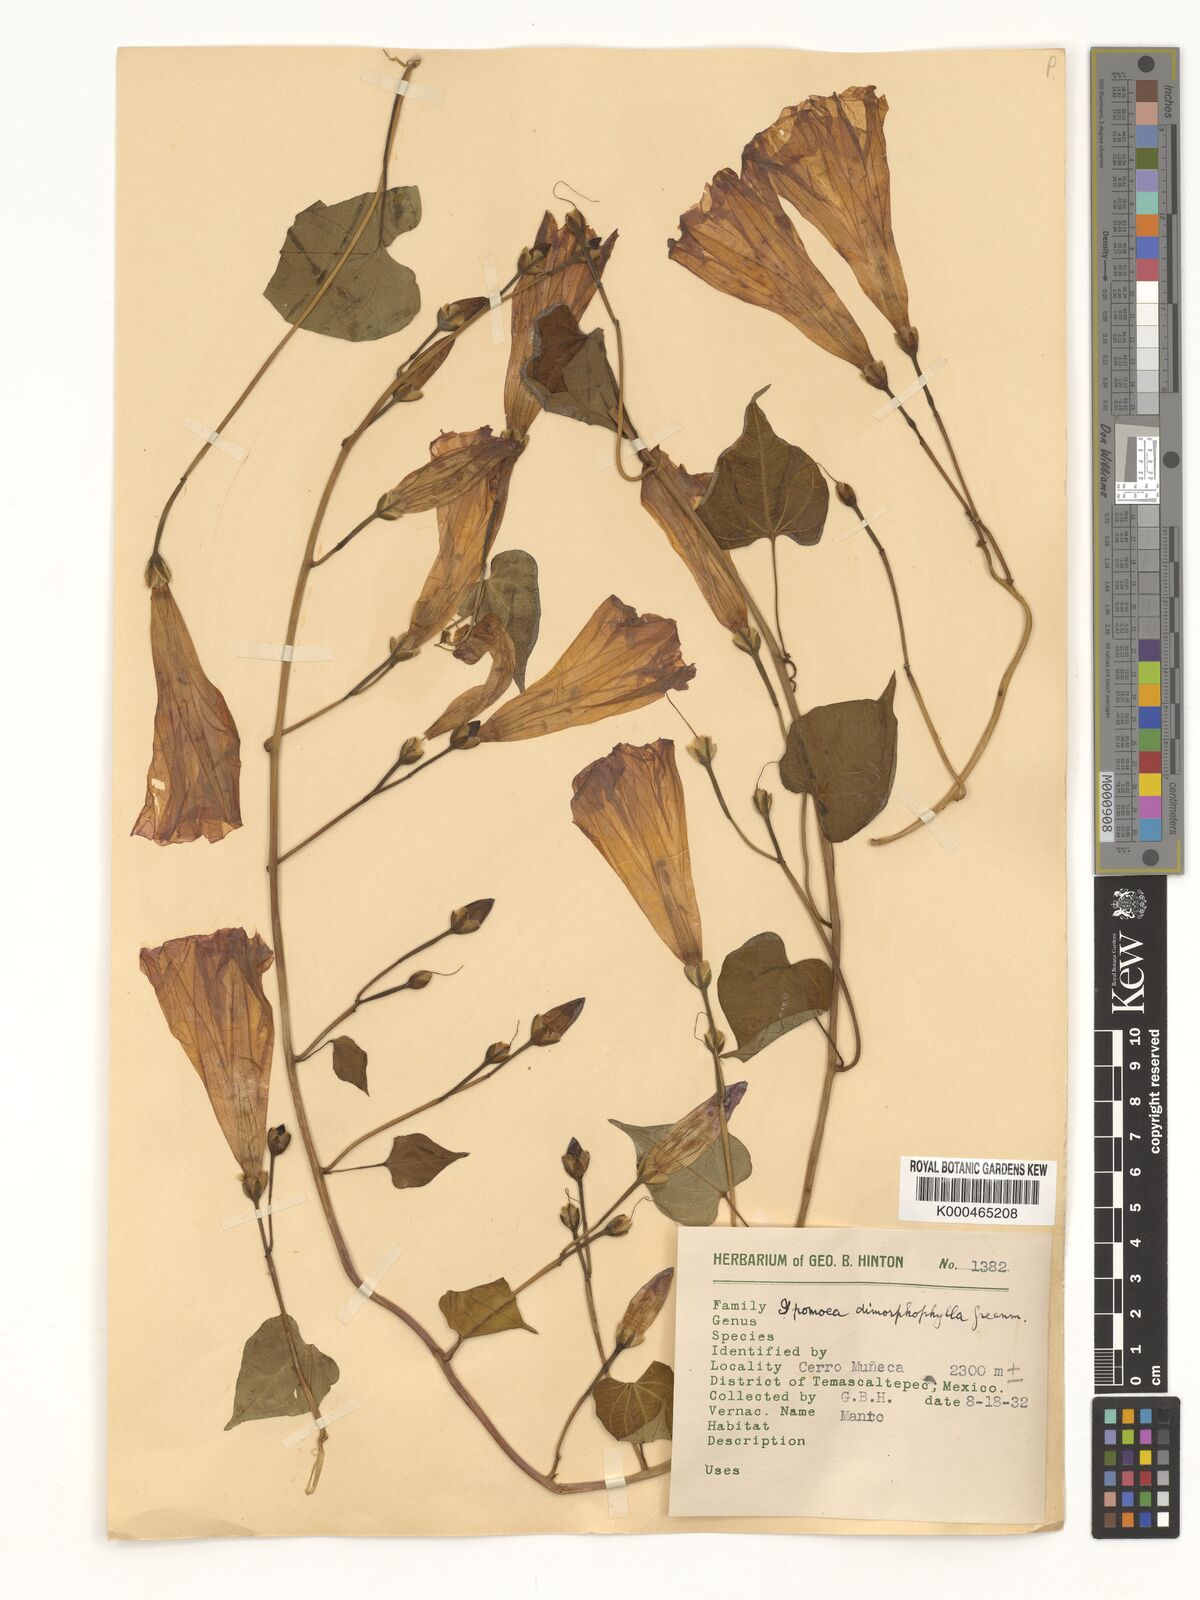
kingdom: Plantae
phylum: Tracheophyta
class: Magnoliopsida
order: Solanales
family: Convolvulaceae
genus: Ipomoea
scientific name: Ipomoea proxima
